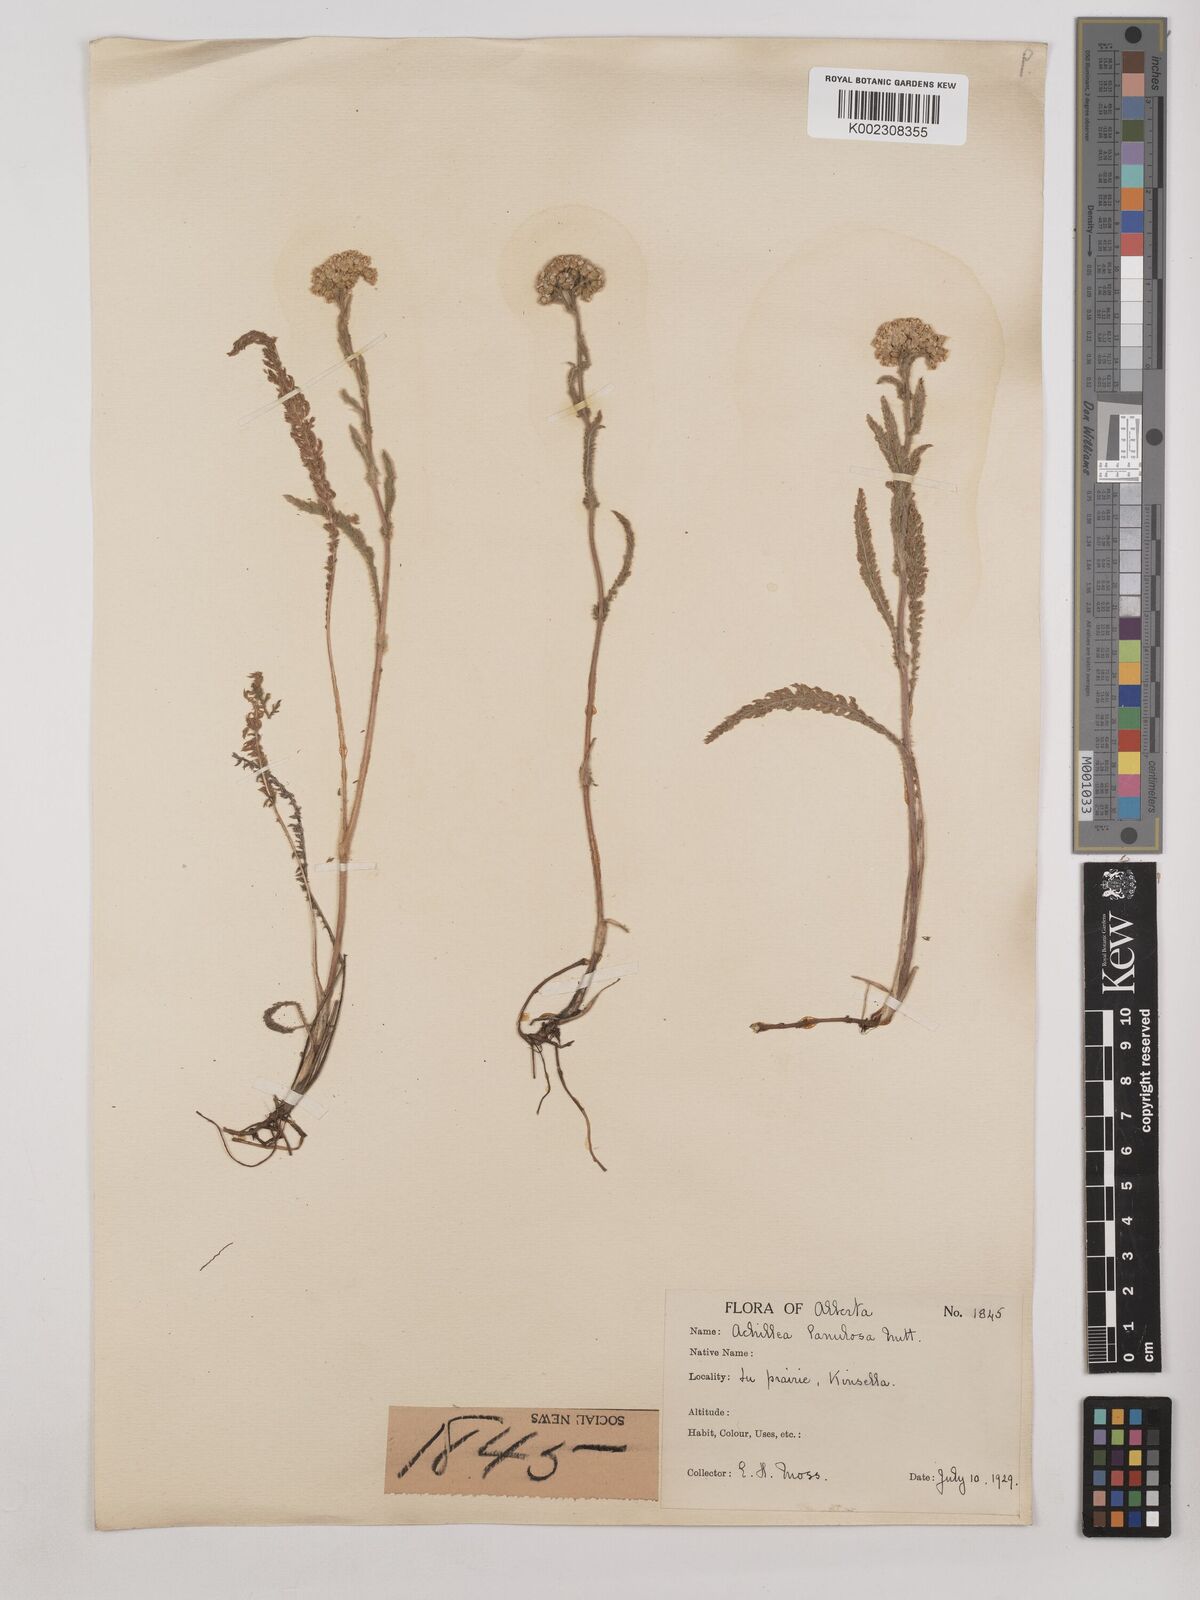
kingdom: Plantae
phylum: Tracheophyta
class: Magnoliopsida
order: Asterales
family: Asteraceae
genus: Achillea
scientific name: Achillea millefolium
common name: Yarrow
